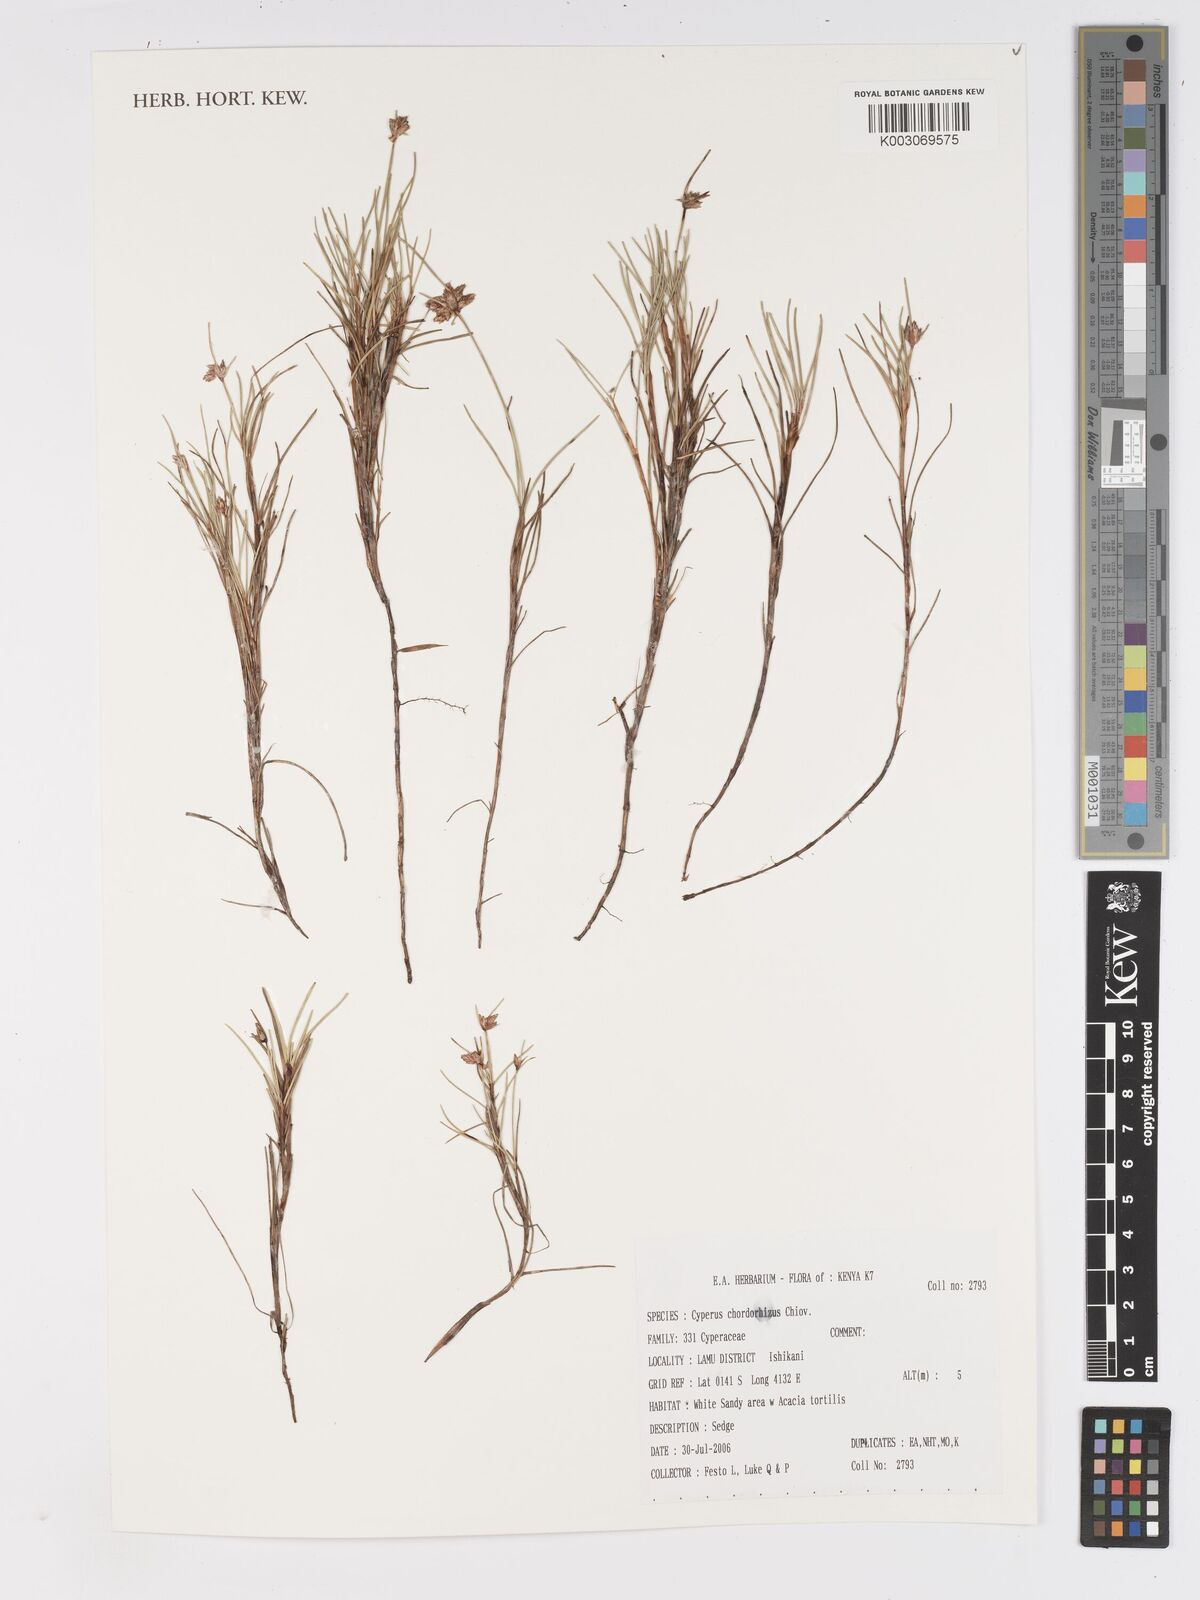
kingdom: Plantae
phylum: Tracheophyta
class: Liliopsida
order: Poales
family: Cyperaceae
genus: Cyperus
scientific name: Cyperus chordorrhizus
